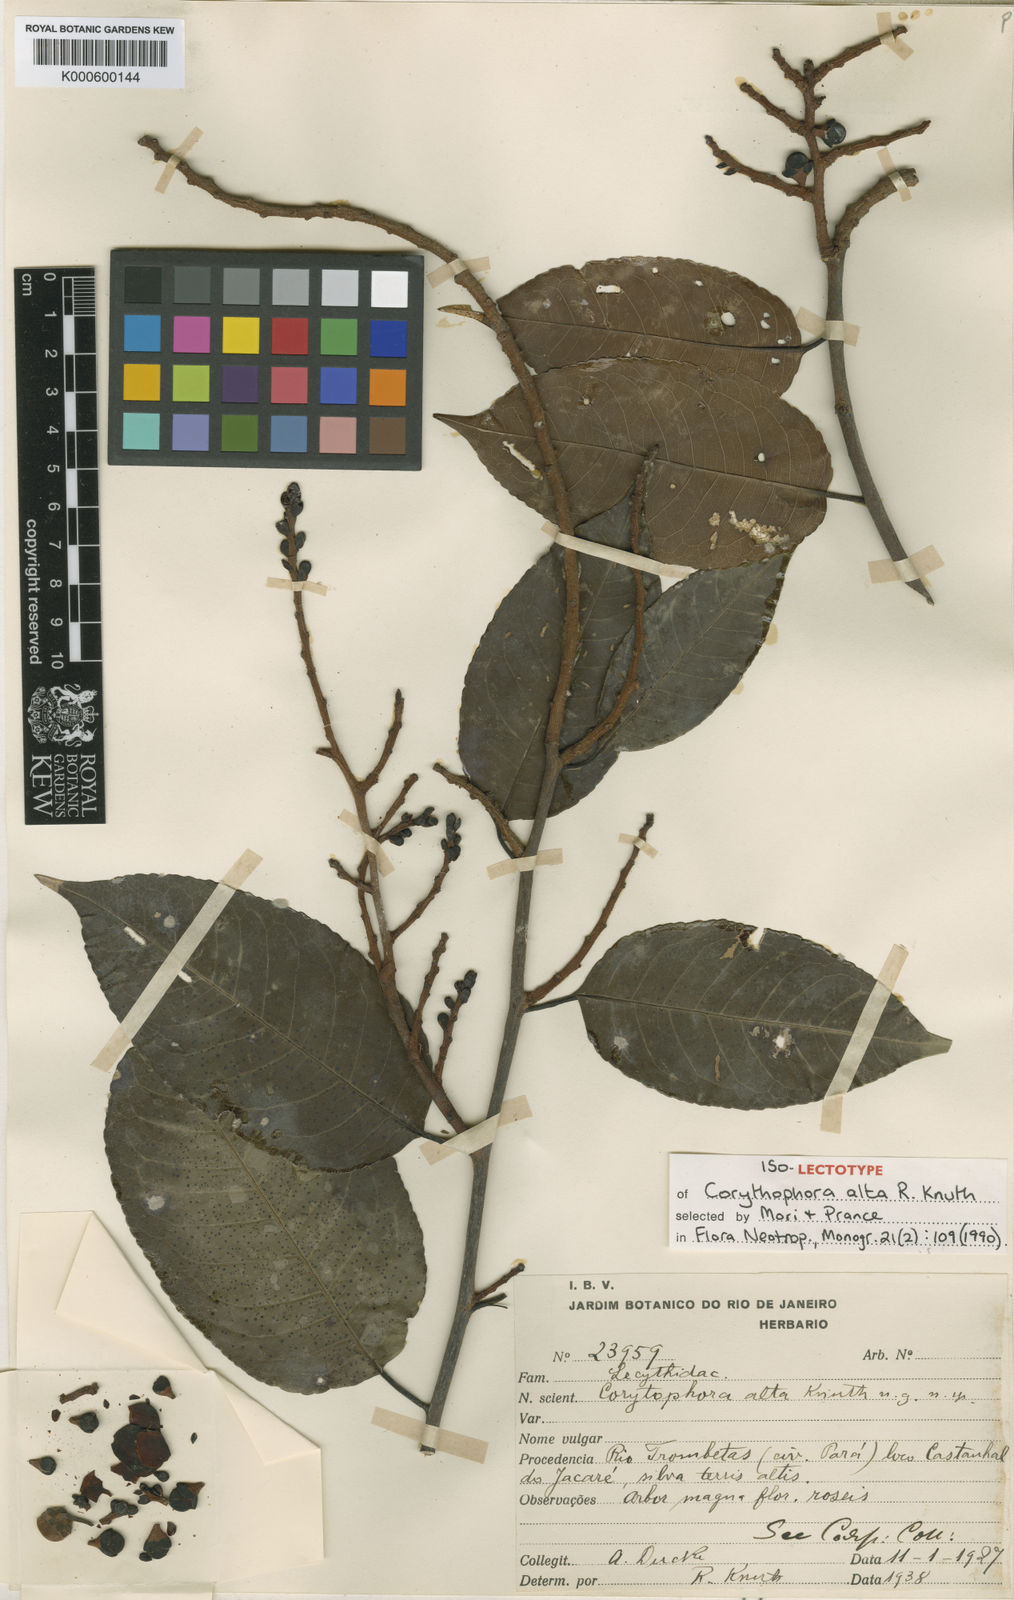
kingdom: Plantae
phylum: Tracheophyta
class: Magnoliopsida
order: Ericales
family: Lecythidaceae
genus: Corythophora
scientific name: Corythophora alta
